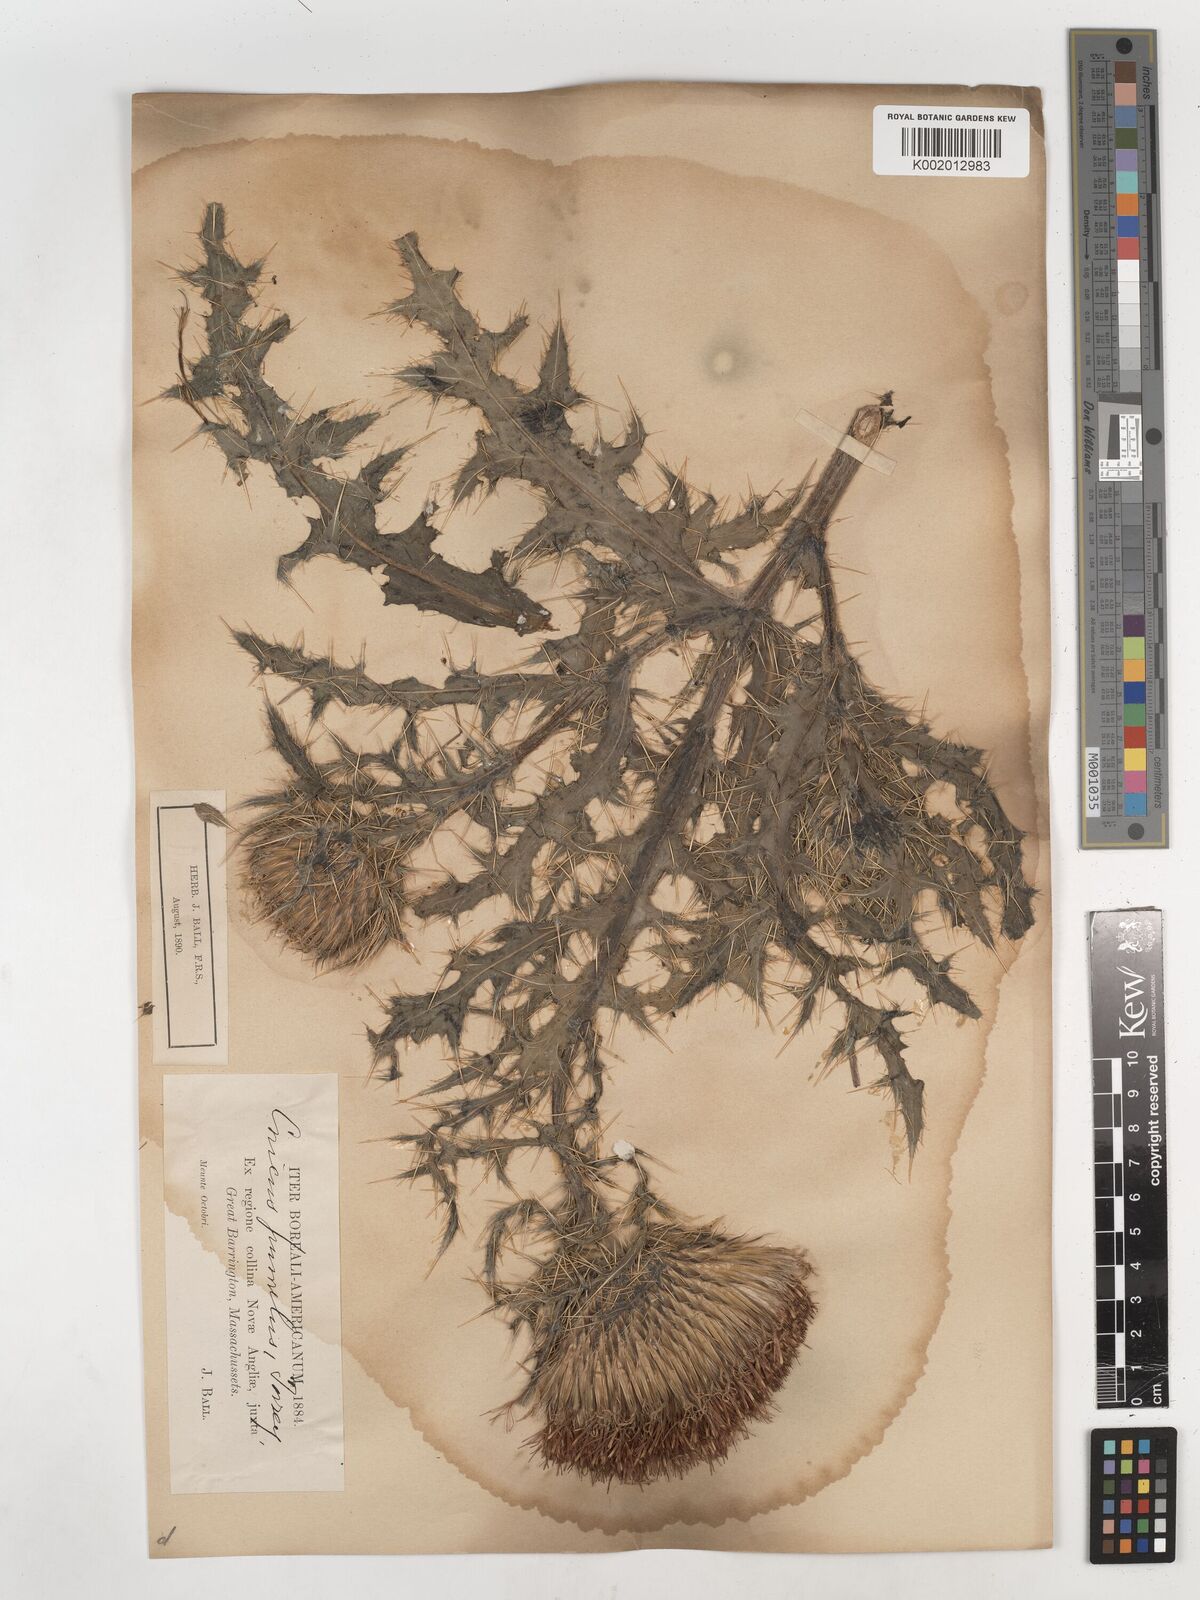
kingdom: Plantae
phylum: Tracheophyta
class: Magnoliopsida
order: Asterales
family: Asteraceae
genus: Cirsium
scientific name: Cirsium pumilum
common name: Pasture thistle
